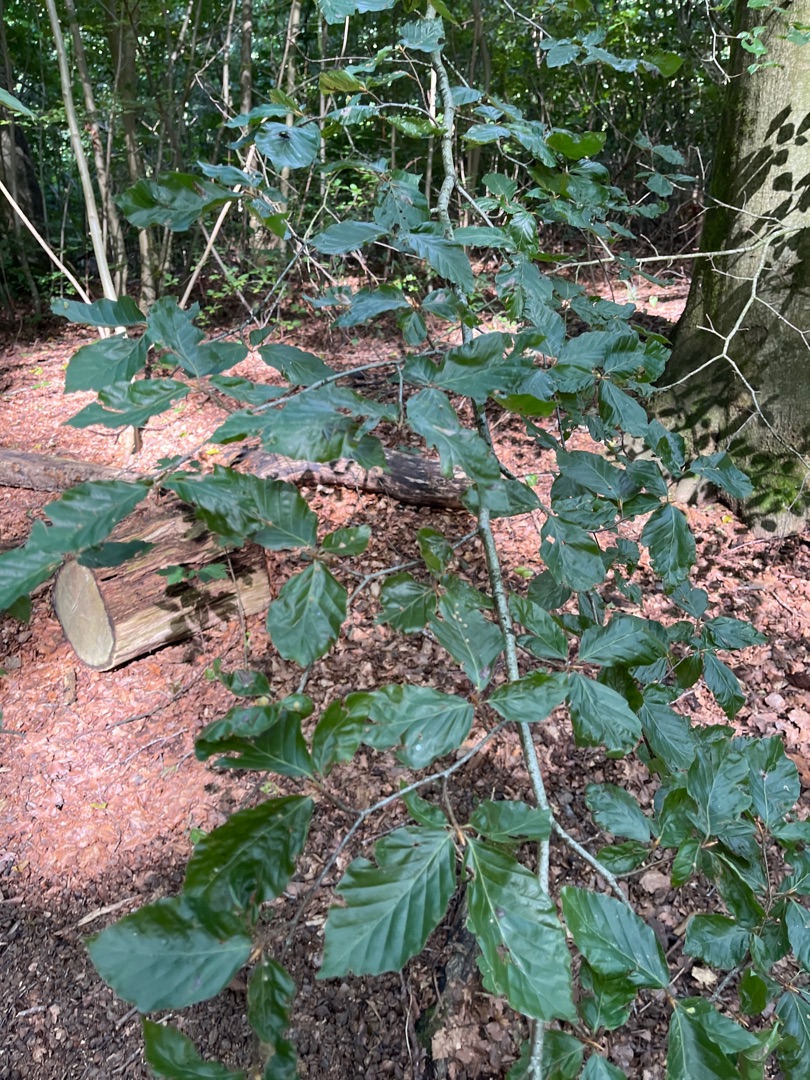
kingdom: Plantae
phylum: Tracheophyta
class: Magnoliopsida
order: Fagales
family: Fagaceae
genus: Fagus
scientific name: Fagus sylvatica
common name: Bøg
